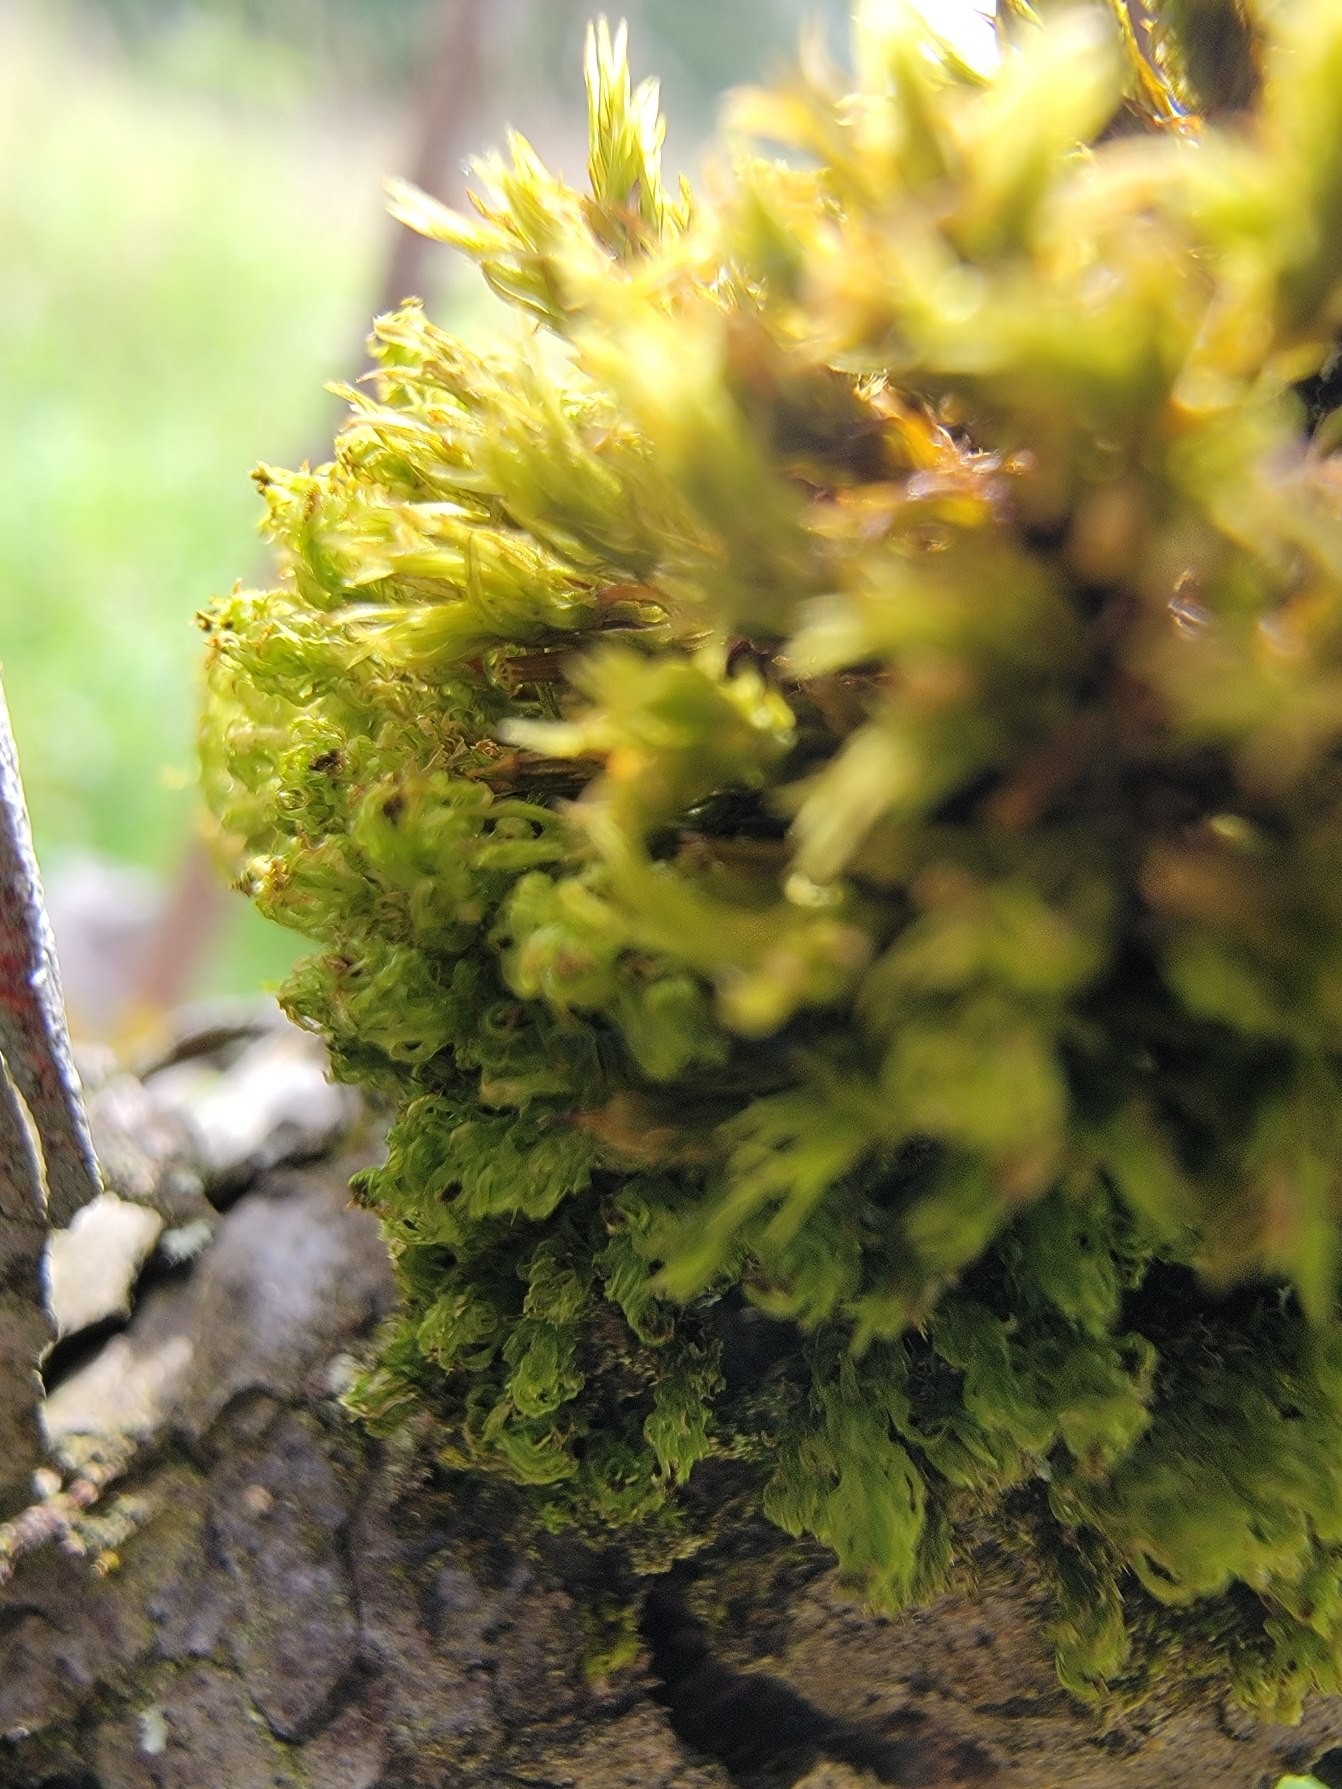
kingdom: Plantae
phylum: Bryophyta
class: Bryopsida
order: Orthotrichales
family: Orthotrichaceae
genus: Plenogemma
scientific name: Plenogemma phyllantha
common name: Stor låddenhætte
